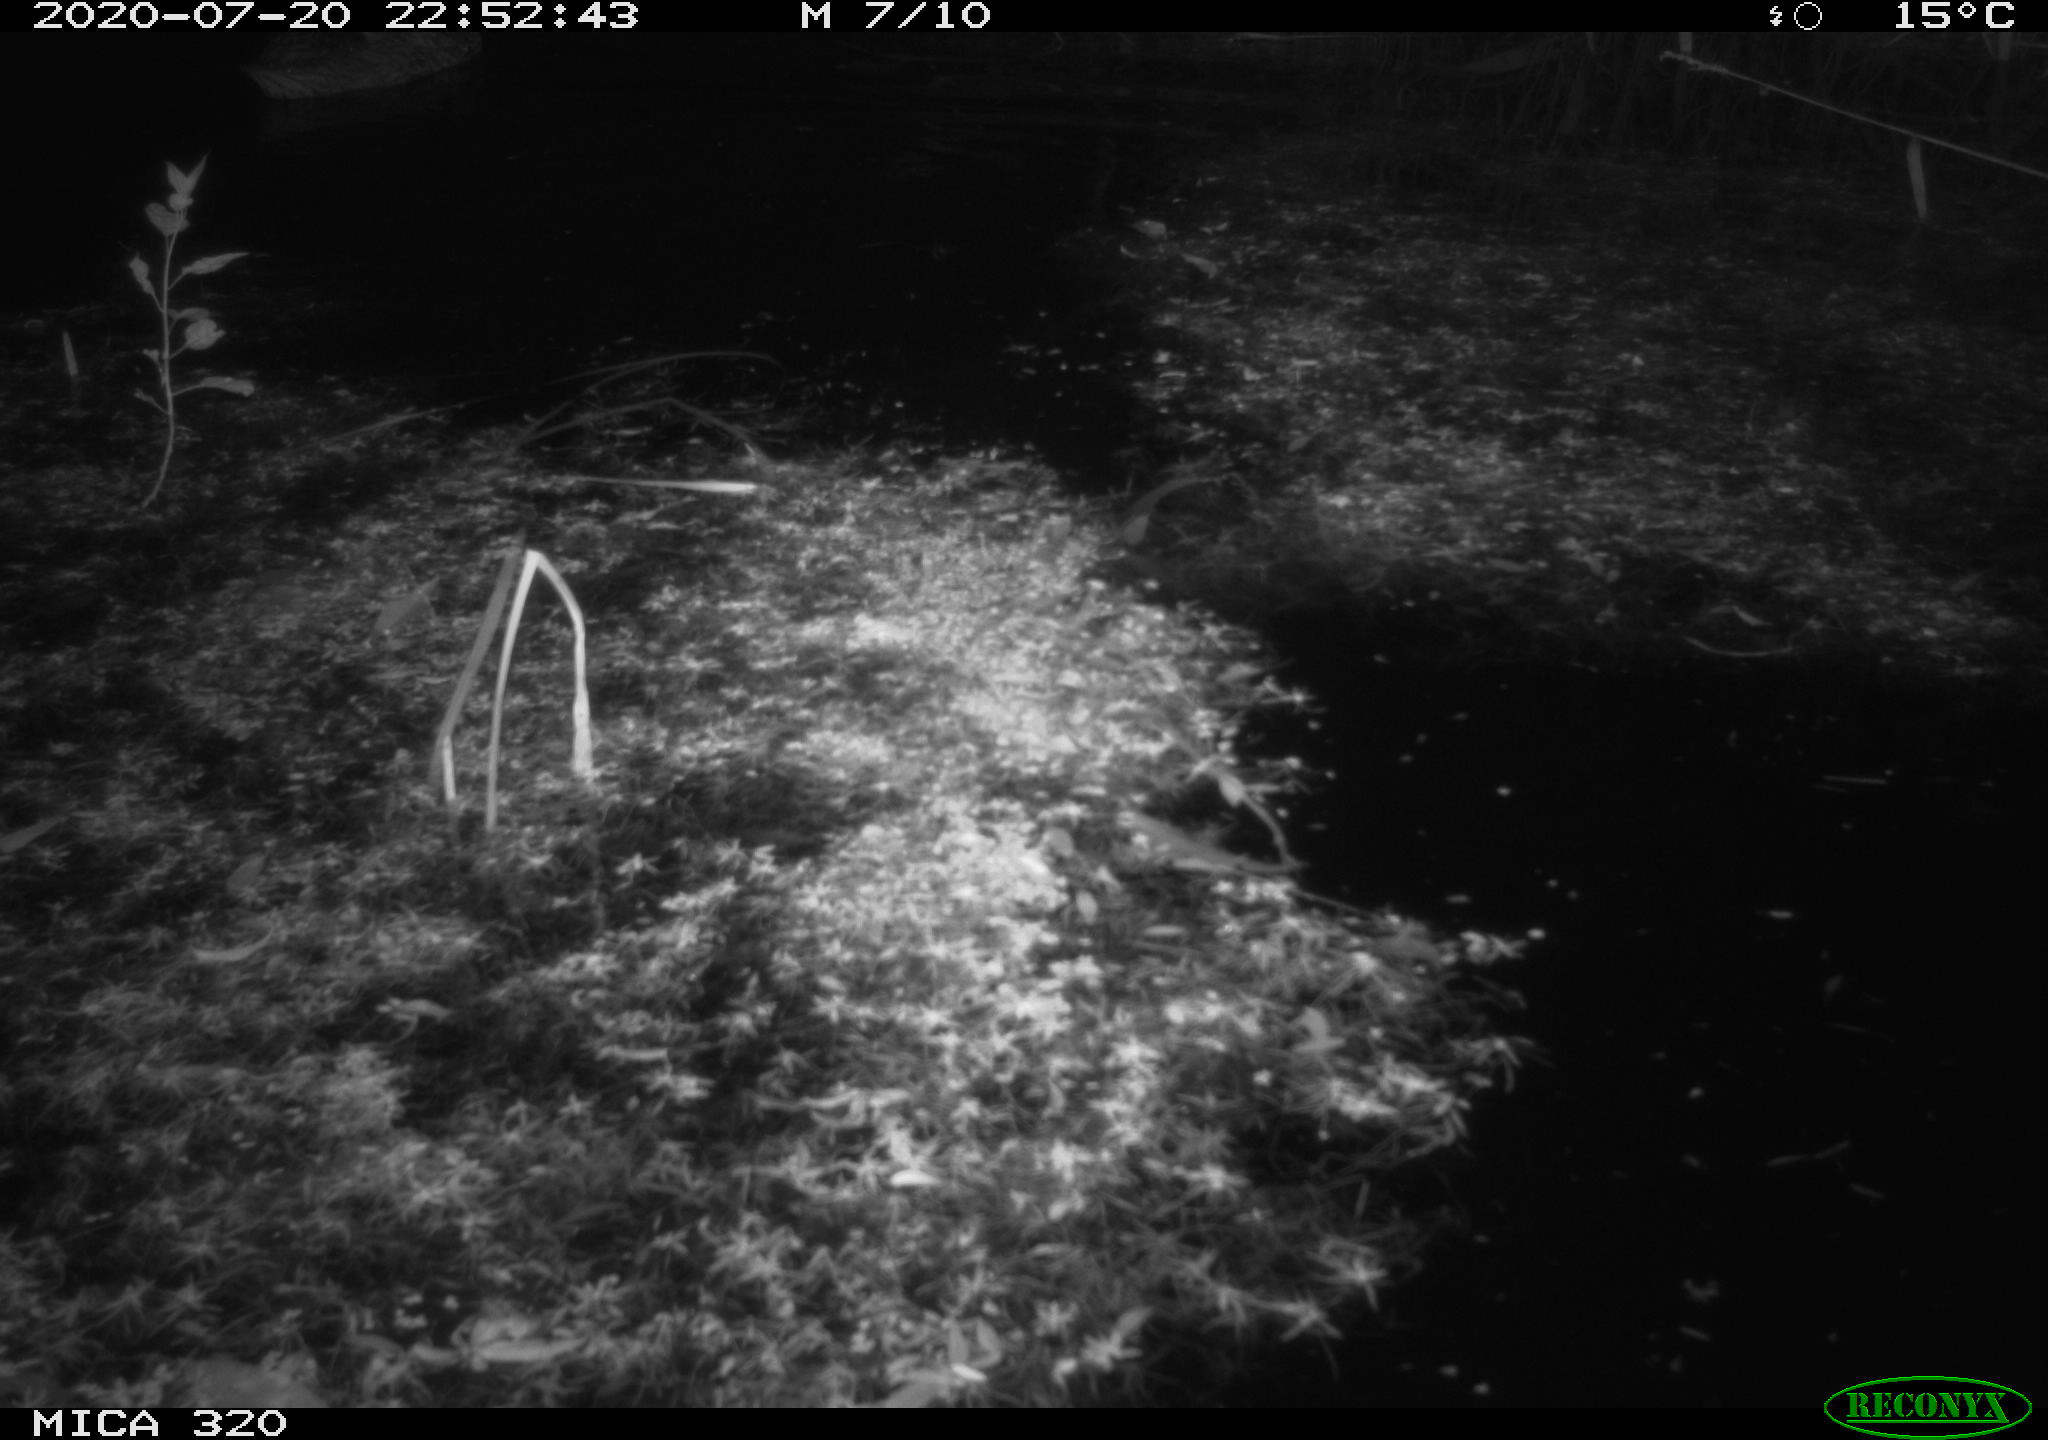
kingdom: Animalia
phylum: Chordata
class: Aves
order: Anseriformes
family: Anatidae
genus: Anas
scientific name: Anas platyrhynchos
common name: Mallard
